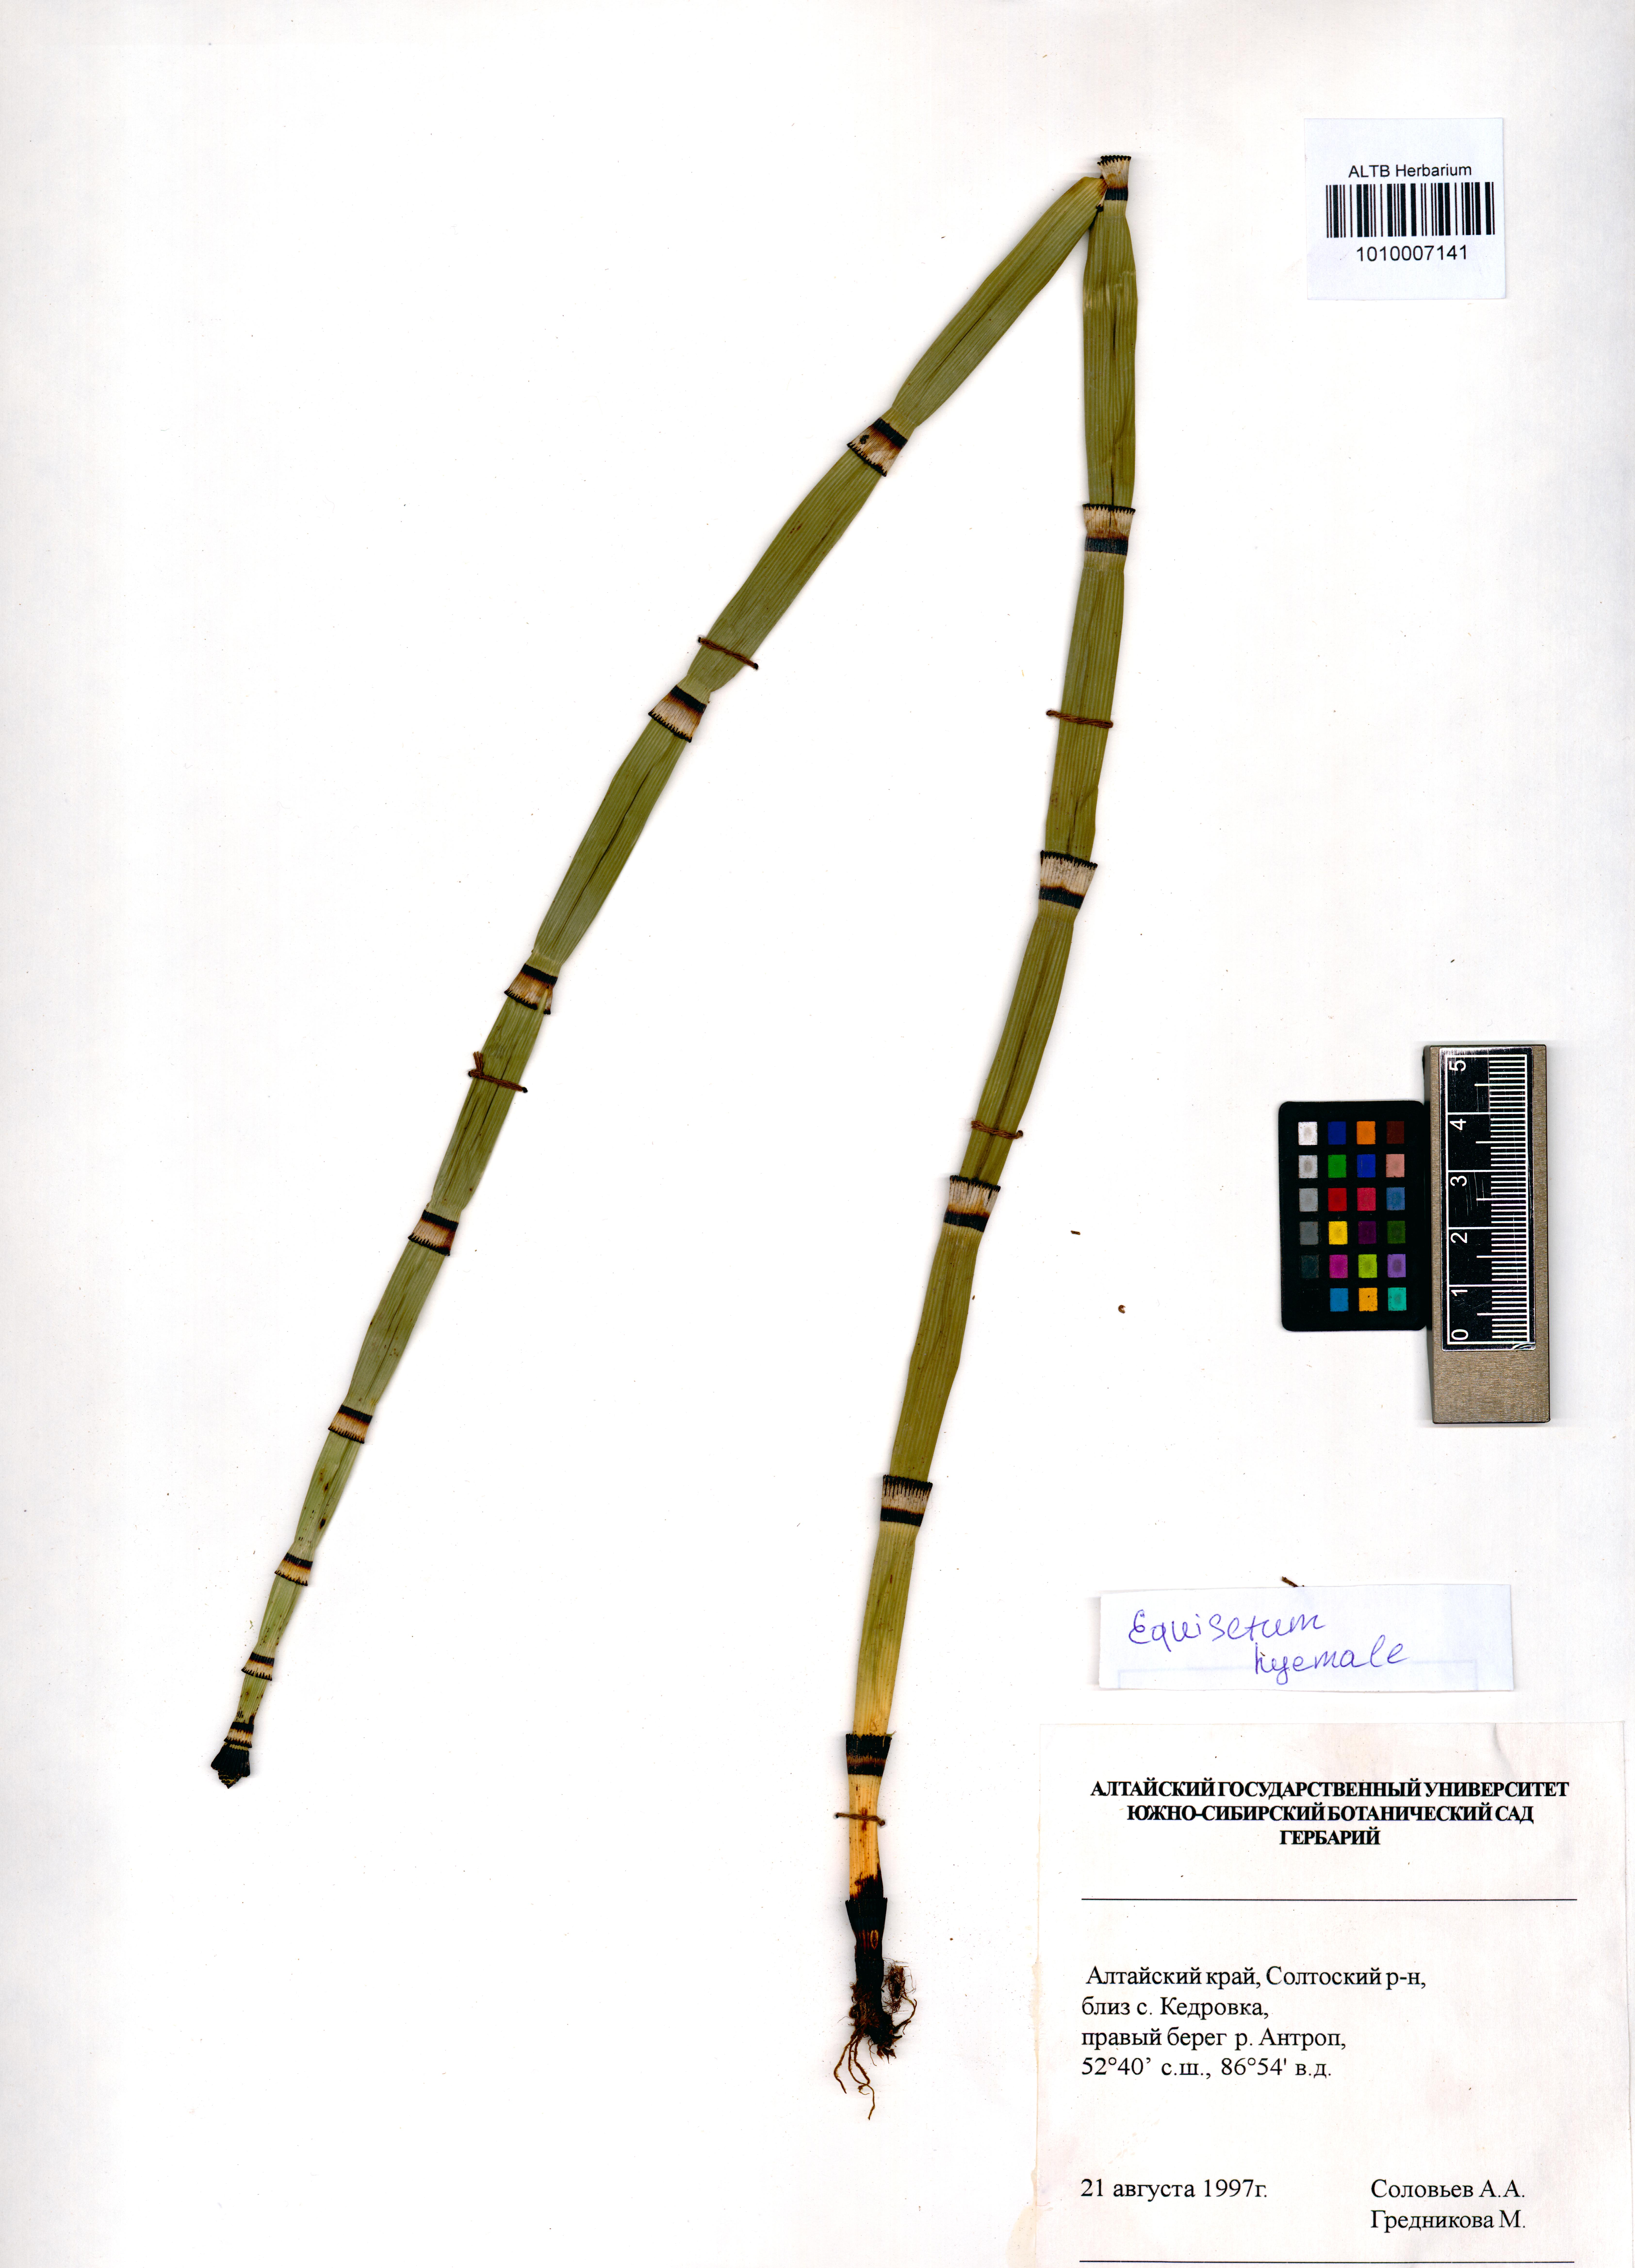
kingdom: Plantae
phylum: Tracheophyta
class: Polypodiopsida
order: Equisetales
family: Equisetaceae
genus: Equisetum
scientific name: Equisetum hyemale
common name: Rough horsetail
